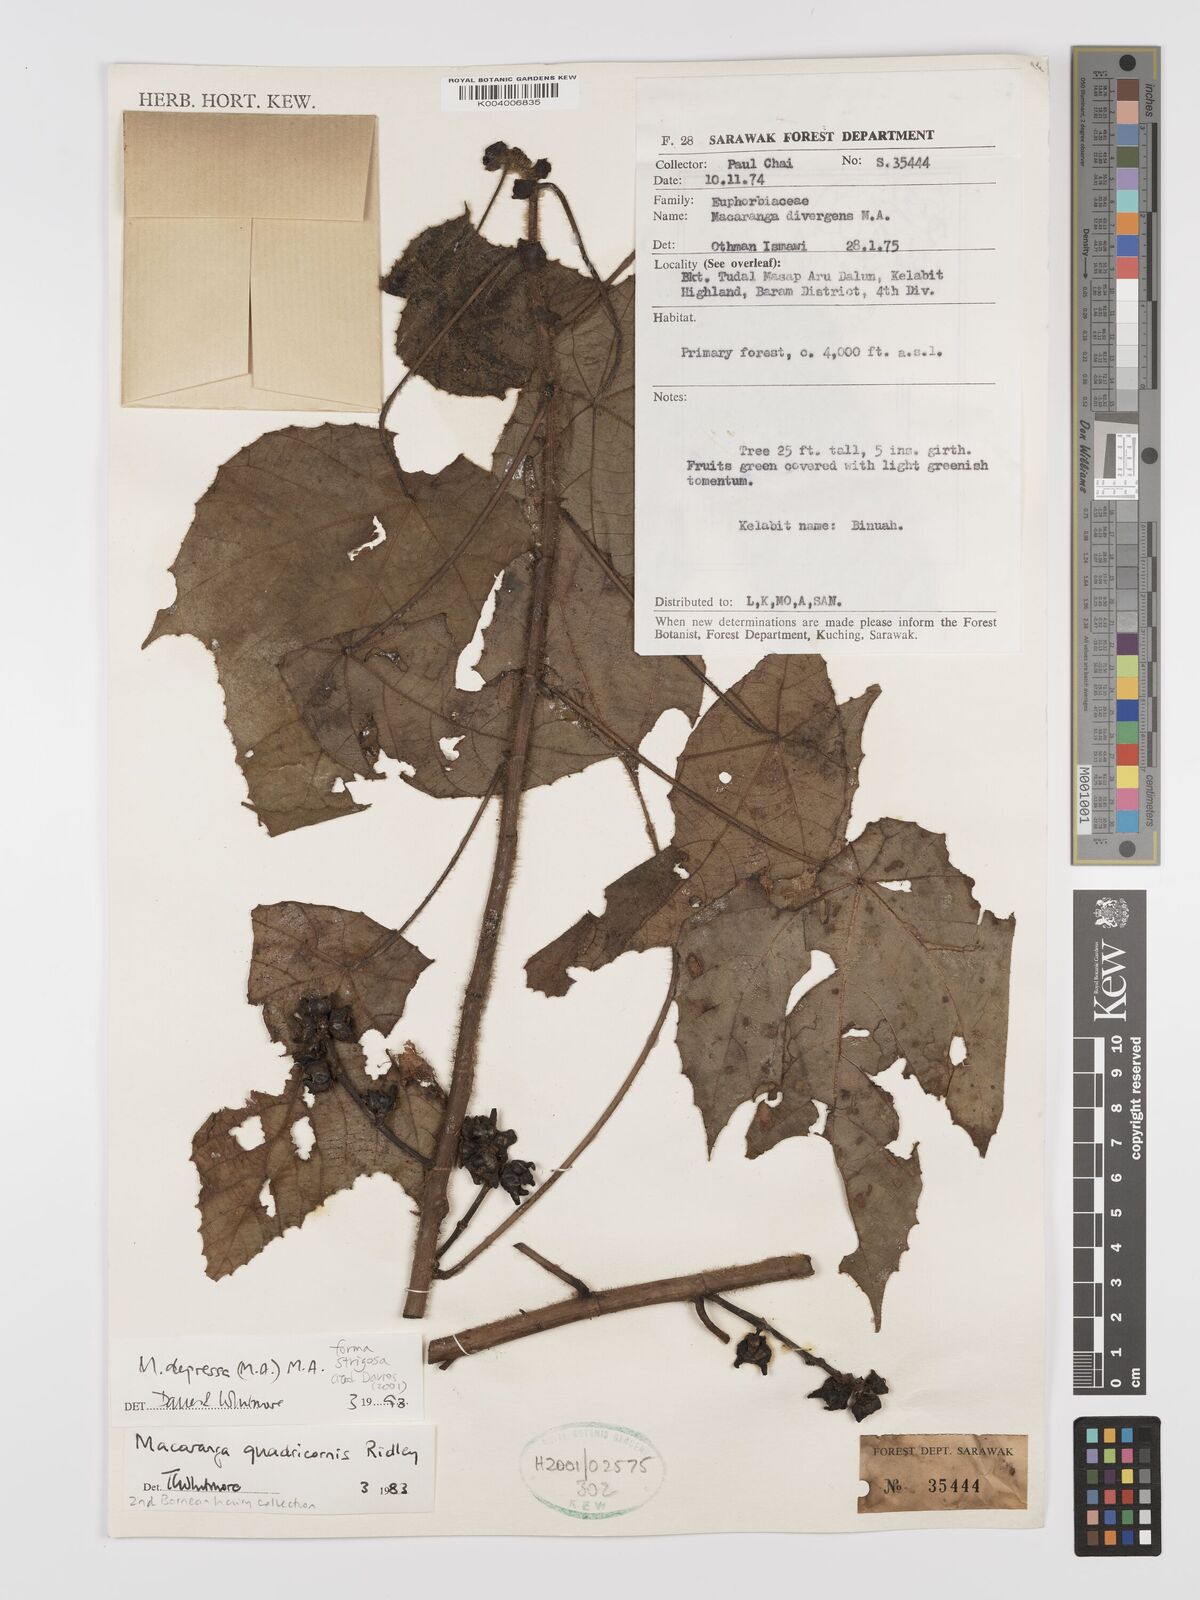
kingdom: Plantae
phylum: Tracheophyta
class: Magnoliopsida
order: Malpighiales
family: Euphorbiaceae
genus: Macaranga
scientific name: Macaranga depressa
